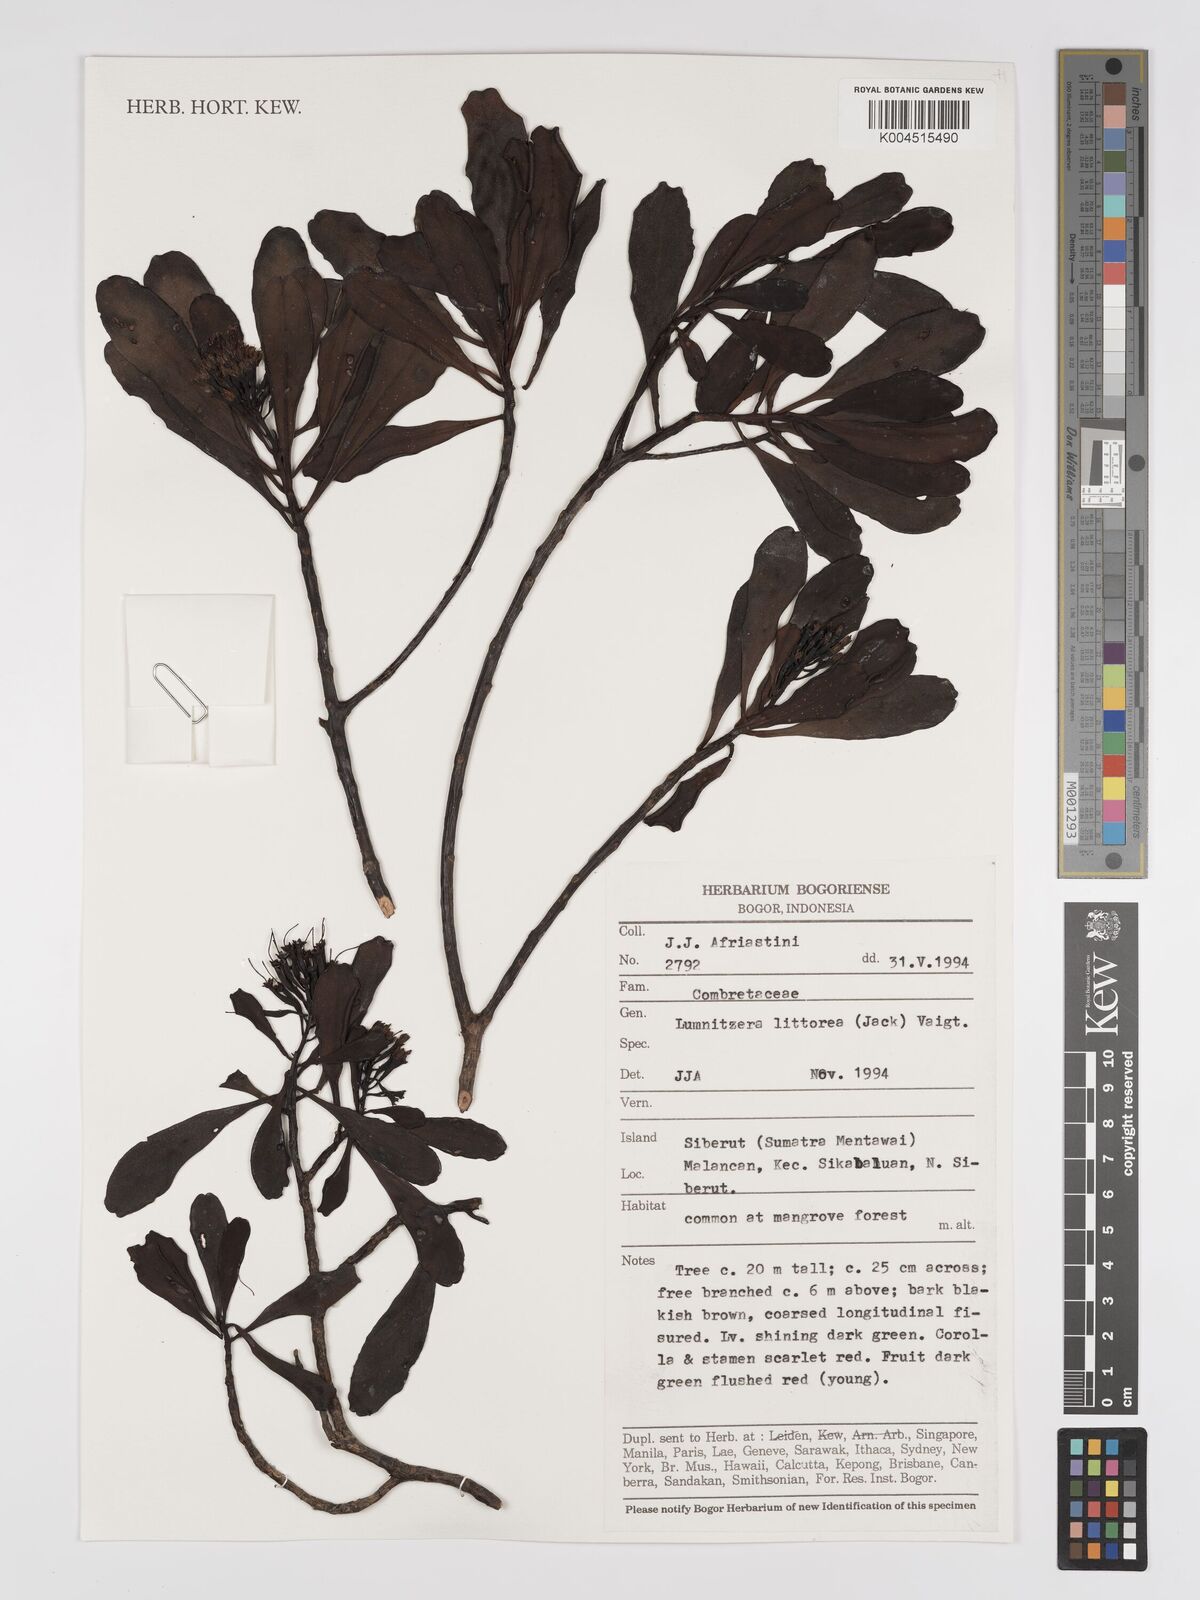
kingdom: Plantae
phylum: Tracheophyta
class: Magnoliopsida
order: Myrtales
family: Combretaceae
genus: Lumnitzera
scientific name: Lumnitzera littorea
